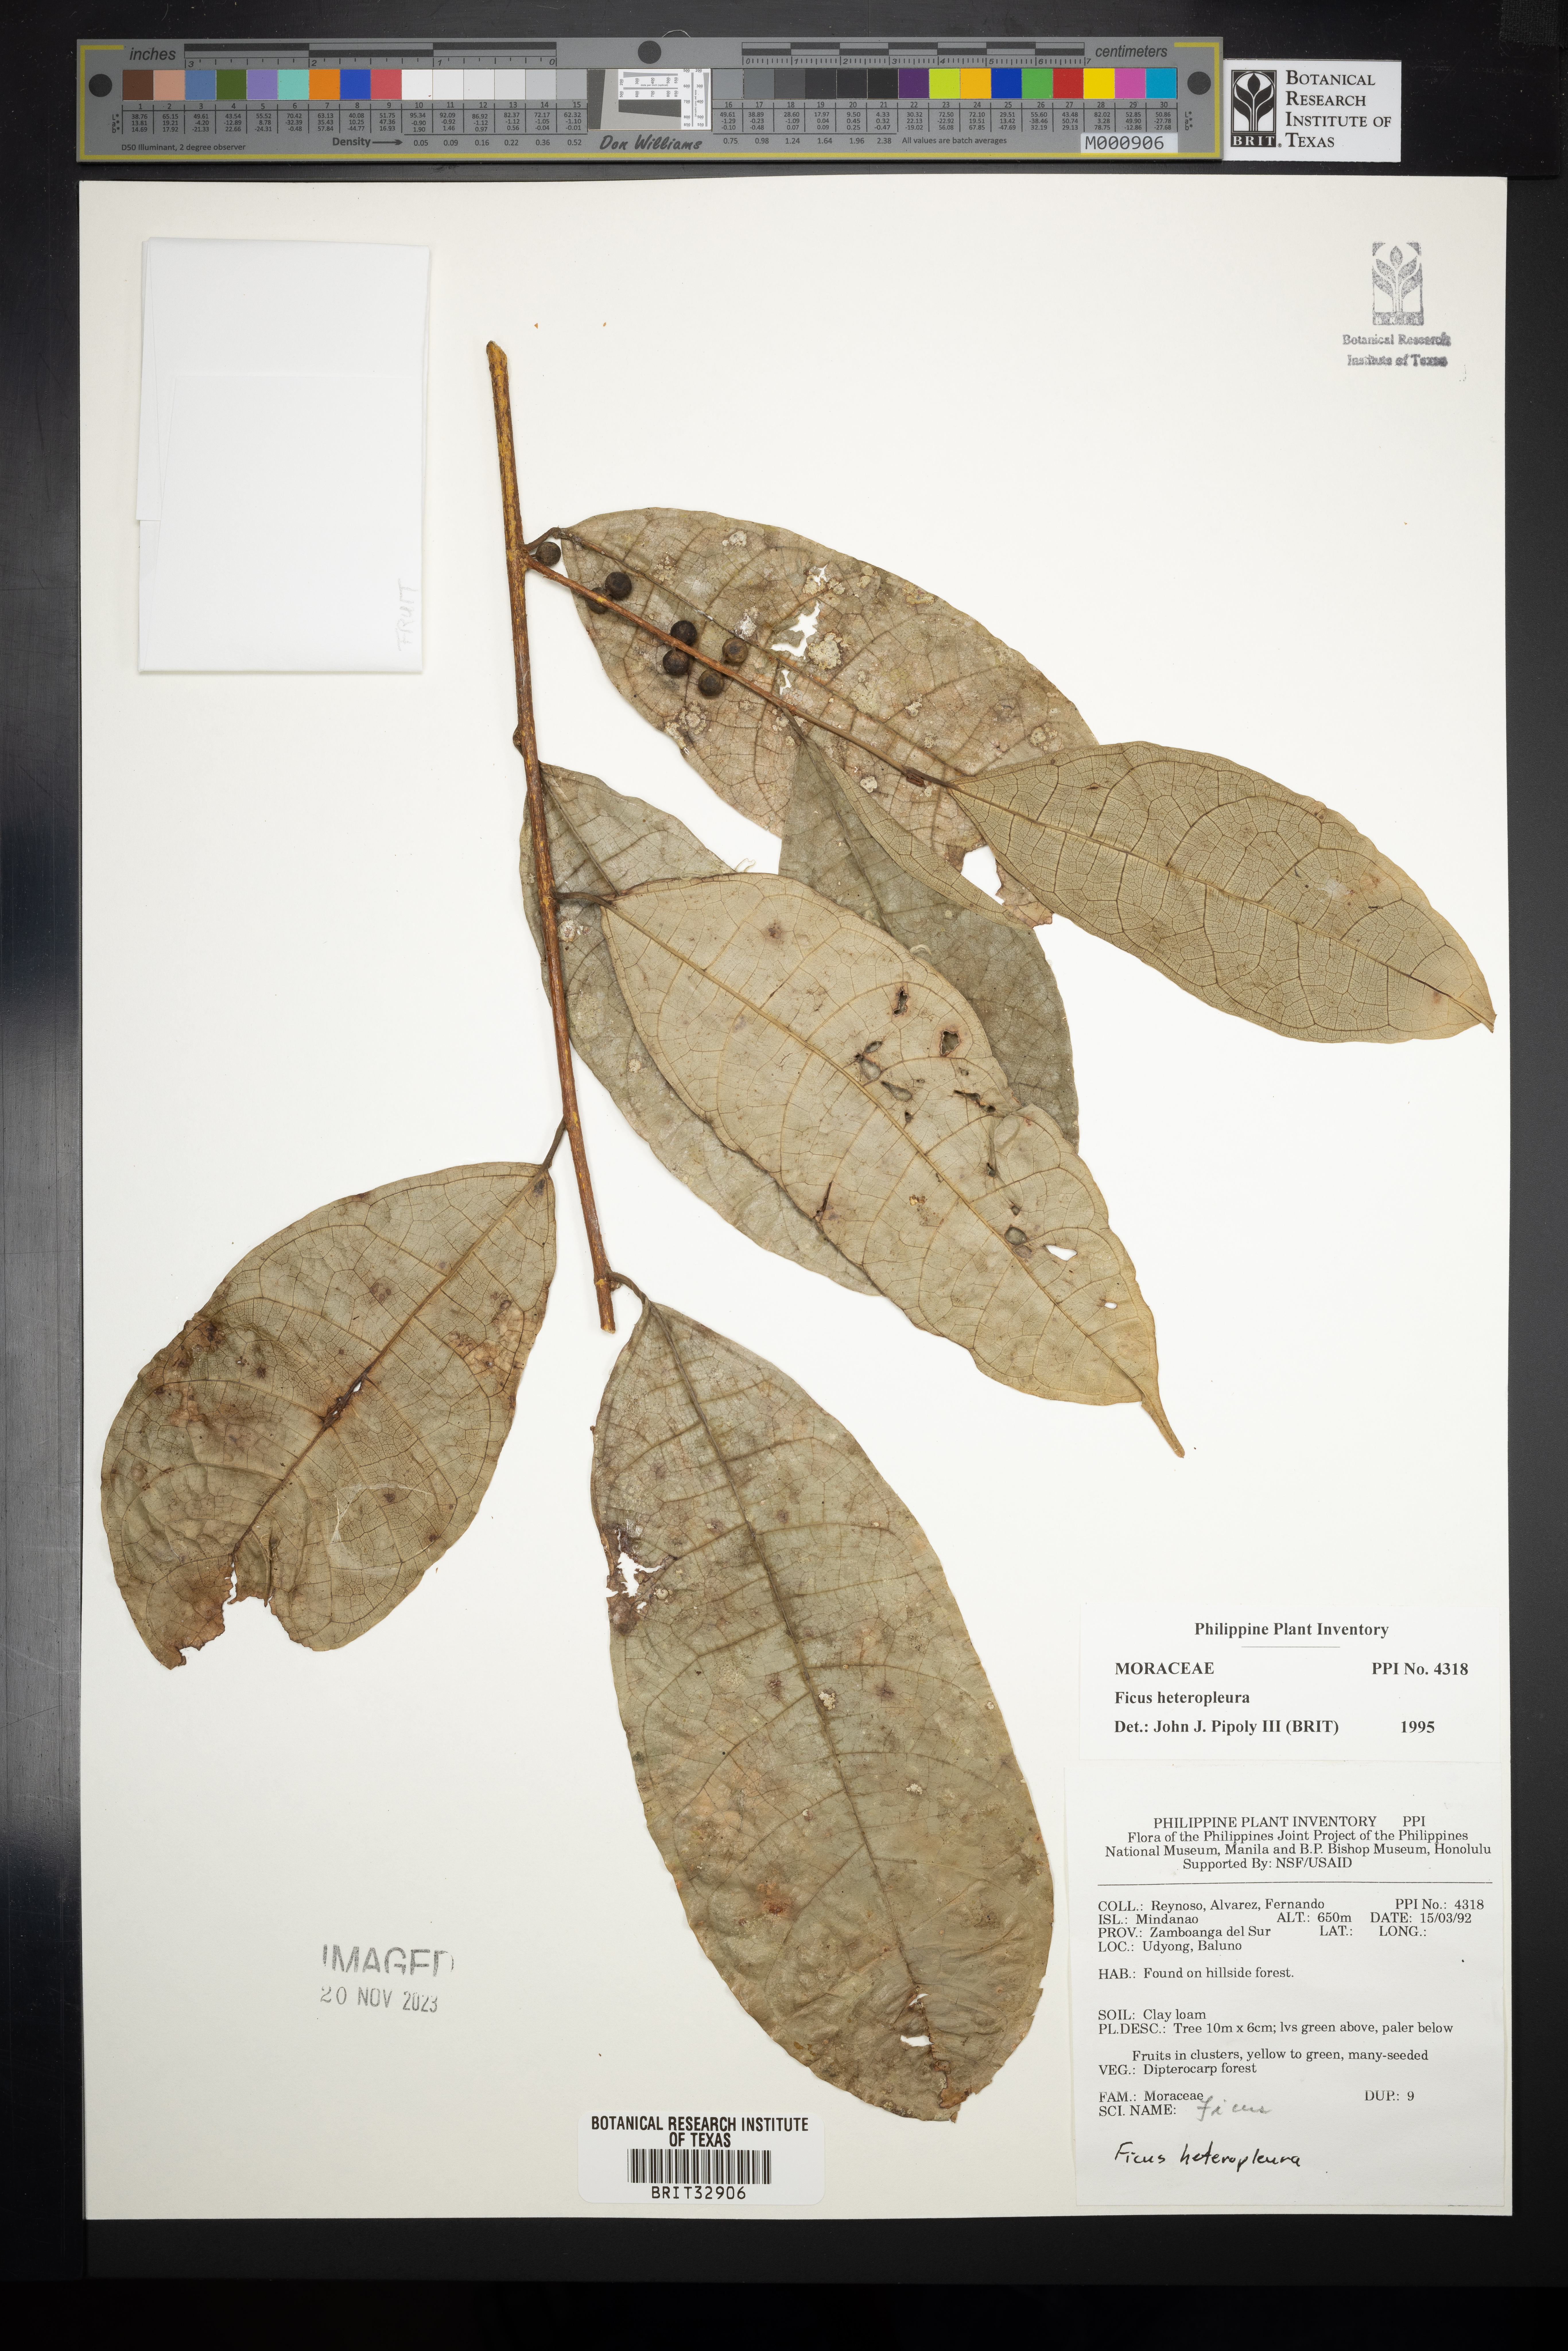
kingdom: Plantae
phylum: Tracheophyta
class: Magnoliopsida
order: Rosales
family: Moraceae
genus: Ficus
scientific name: Ficus heteropleura
